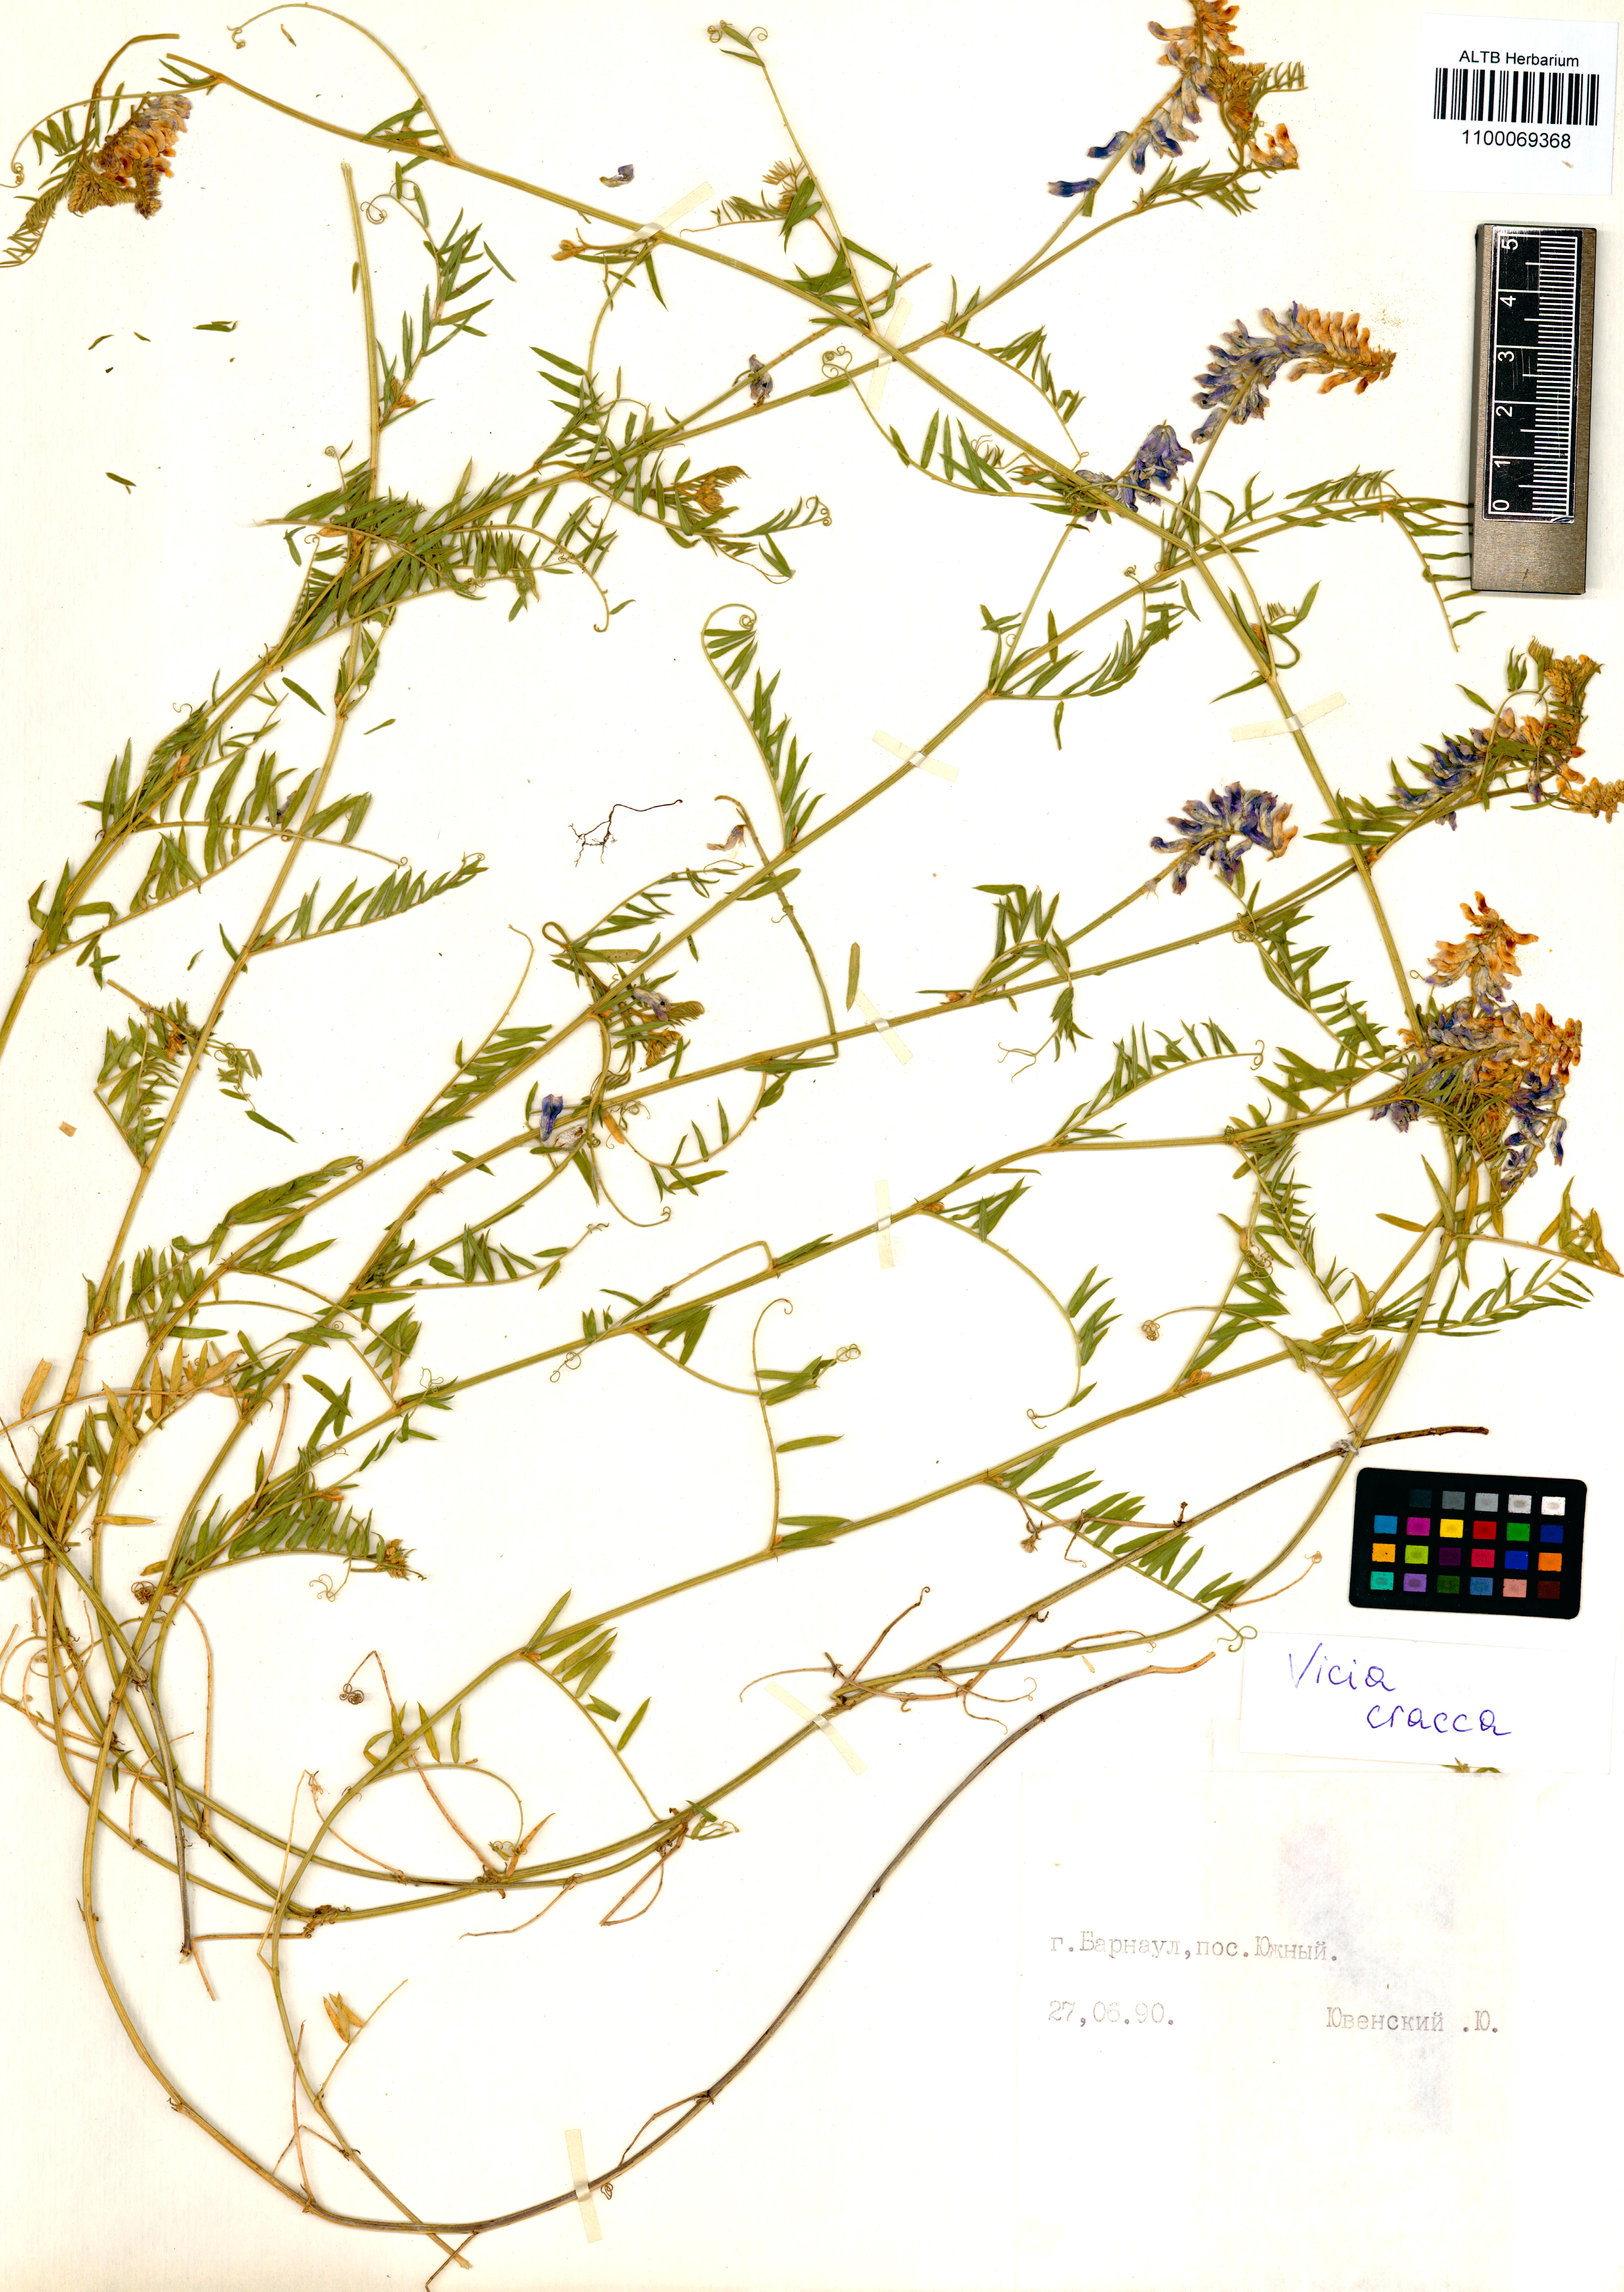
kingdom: Plantae
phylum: Tracheophyta
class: Magnoliopsida
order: Fabales
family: Fabaceae
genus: Vicia
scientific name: Vicia cracca
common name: Bird vetch
